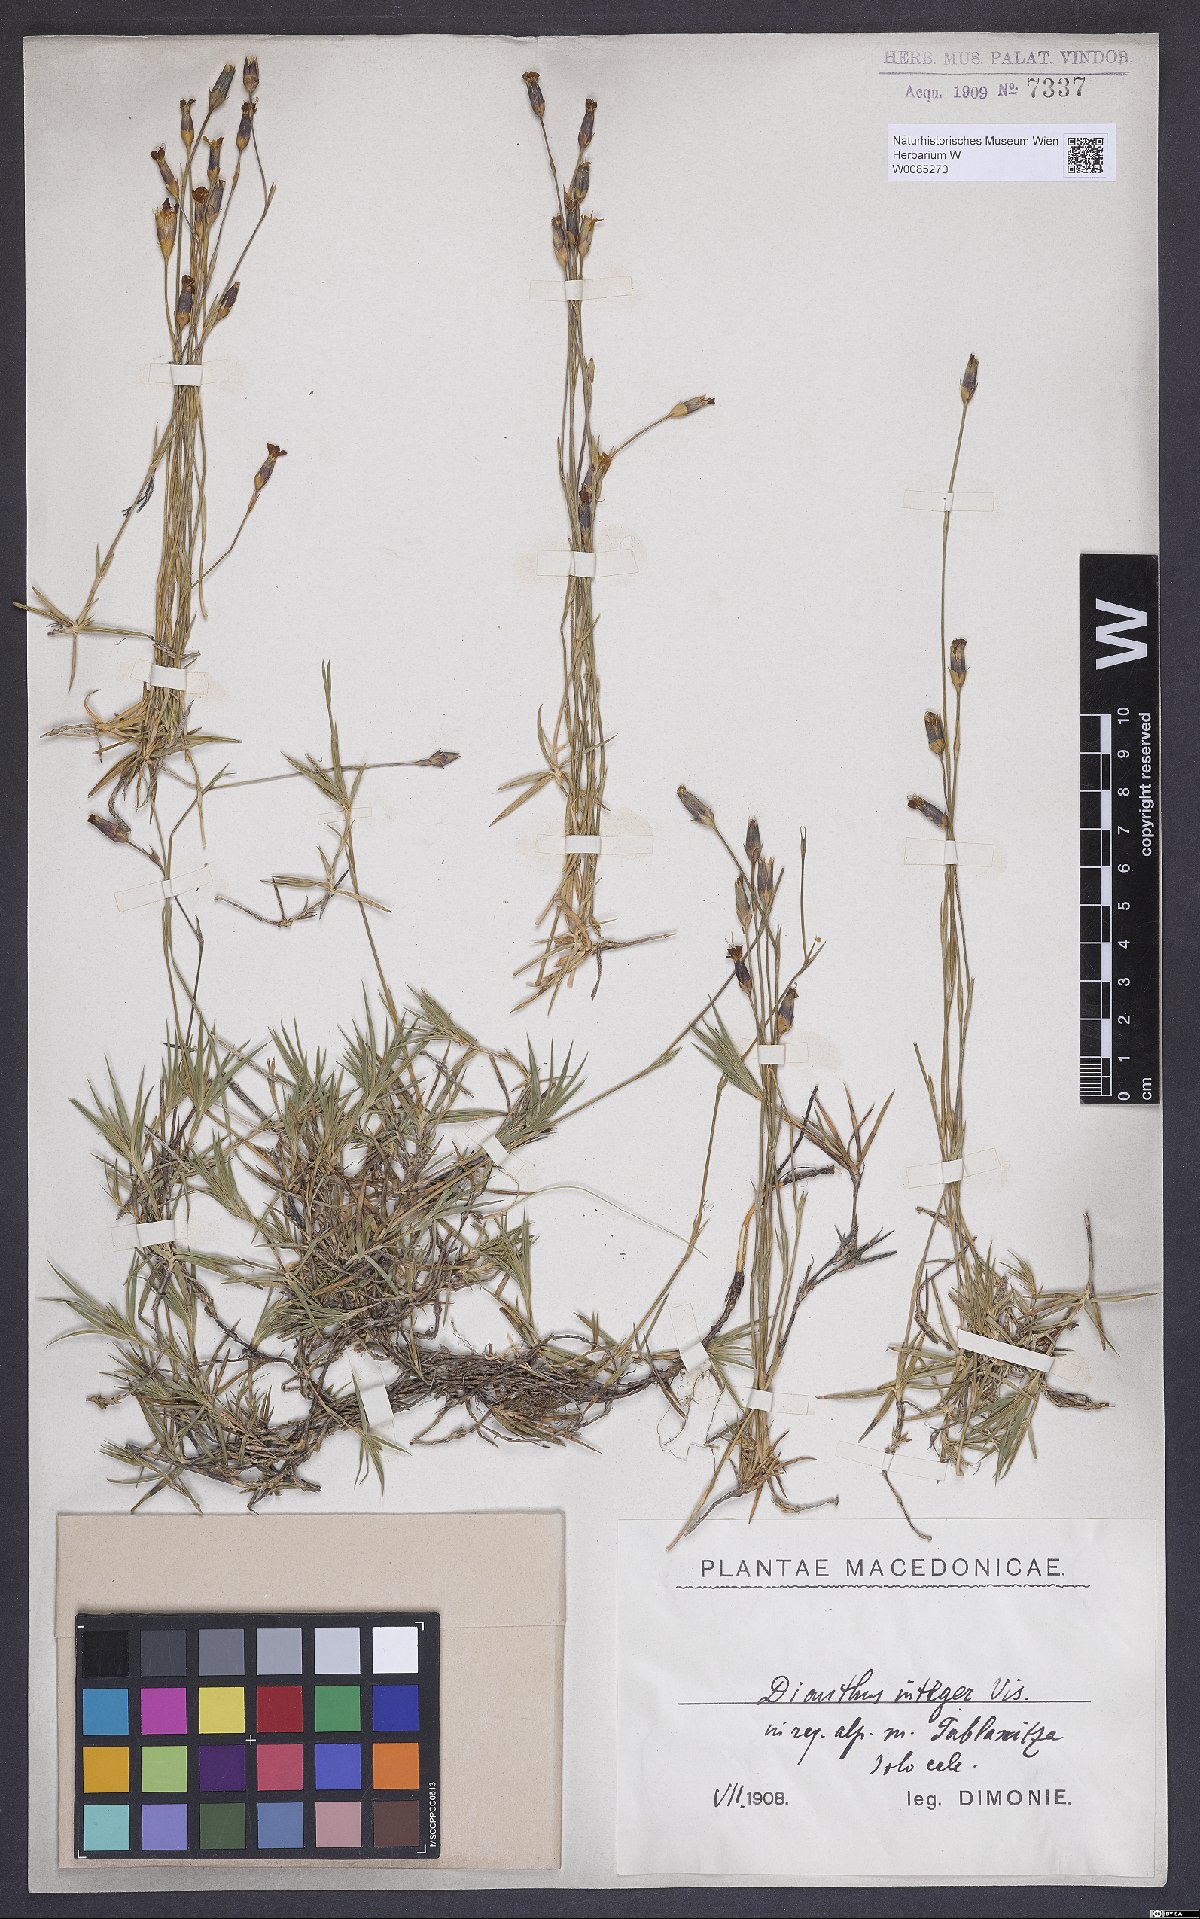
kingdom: Plantae
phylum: Tracheophyta
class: Magnoliopsida
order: Caryophyllales
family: Caryophyllaceae
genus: Dianthus
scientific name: Dianthus petraeus
